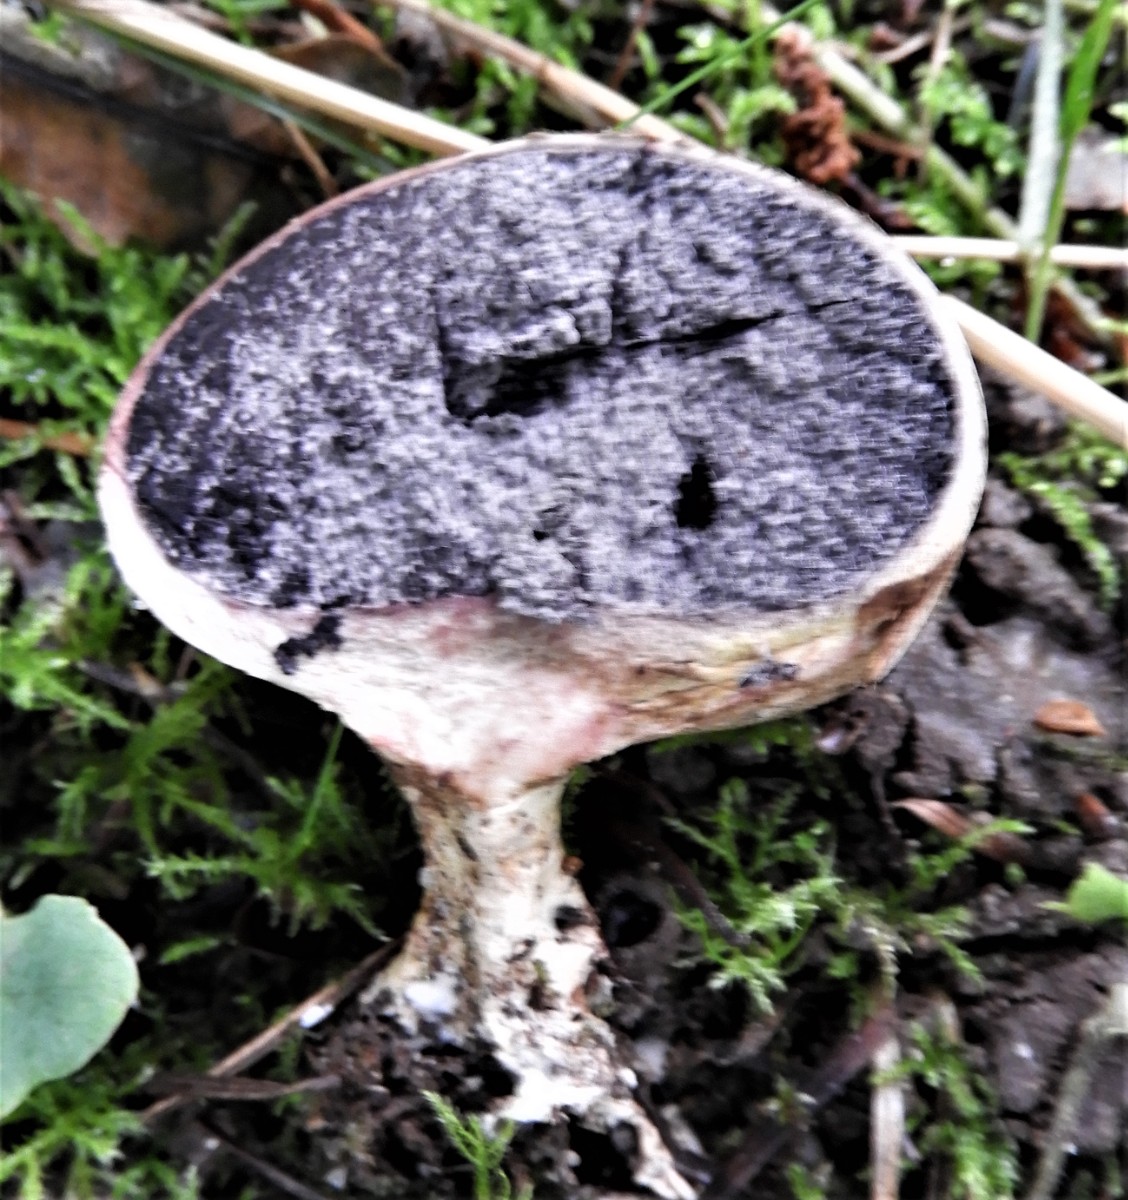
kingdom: Fungi
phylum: Basidiomycota
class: Agaricomycetes
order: Boletales
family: Sclerodermataceae
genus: Scleroderma
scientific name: Scleroderma verrucosum
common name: stilket bruskbold
